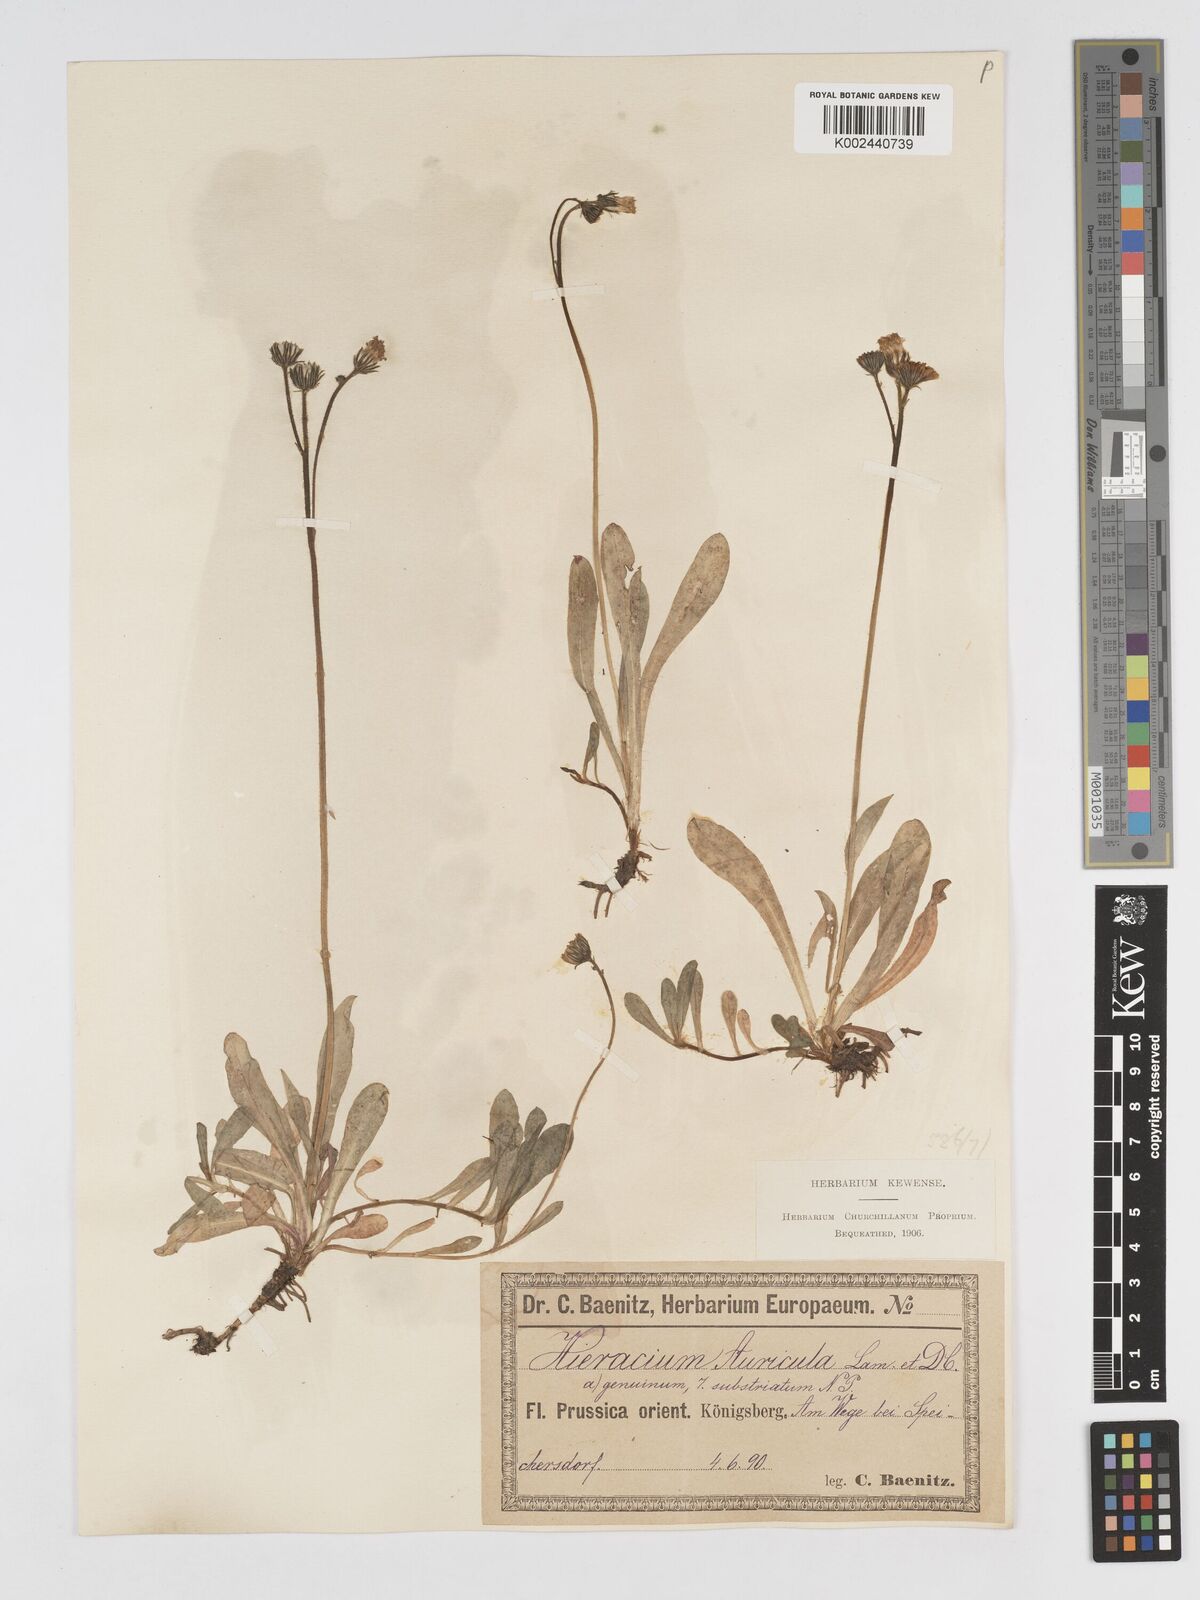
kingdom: Plantae
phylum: Tracheophyta
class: Magnoliopsida
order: Asterales
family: Asteraceae
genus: Pilosella
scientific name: Pilosella floribunda
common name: Glaucous hawkweed
